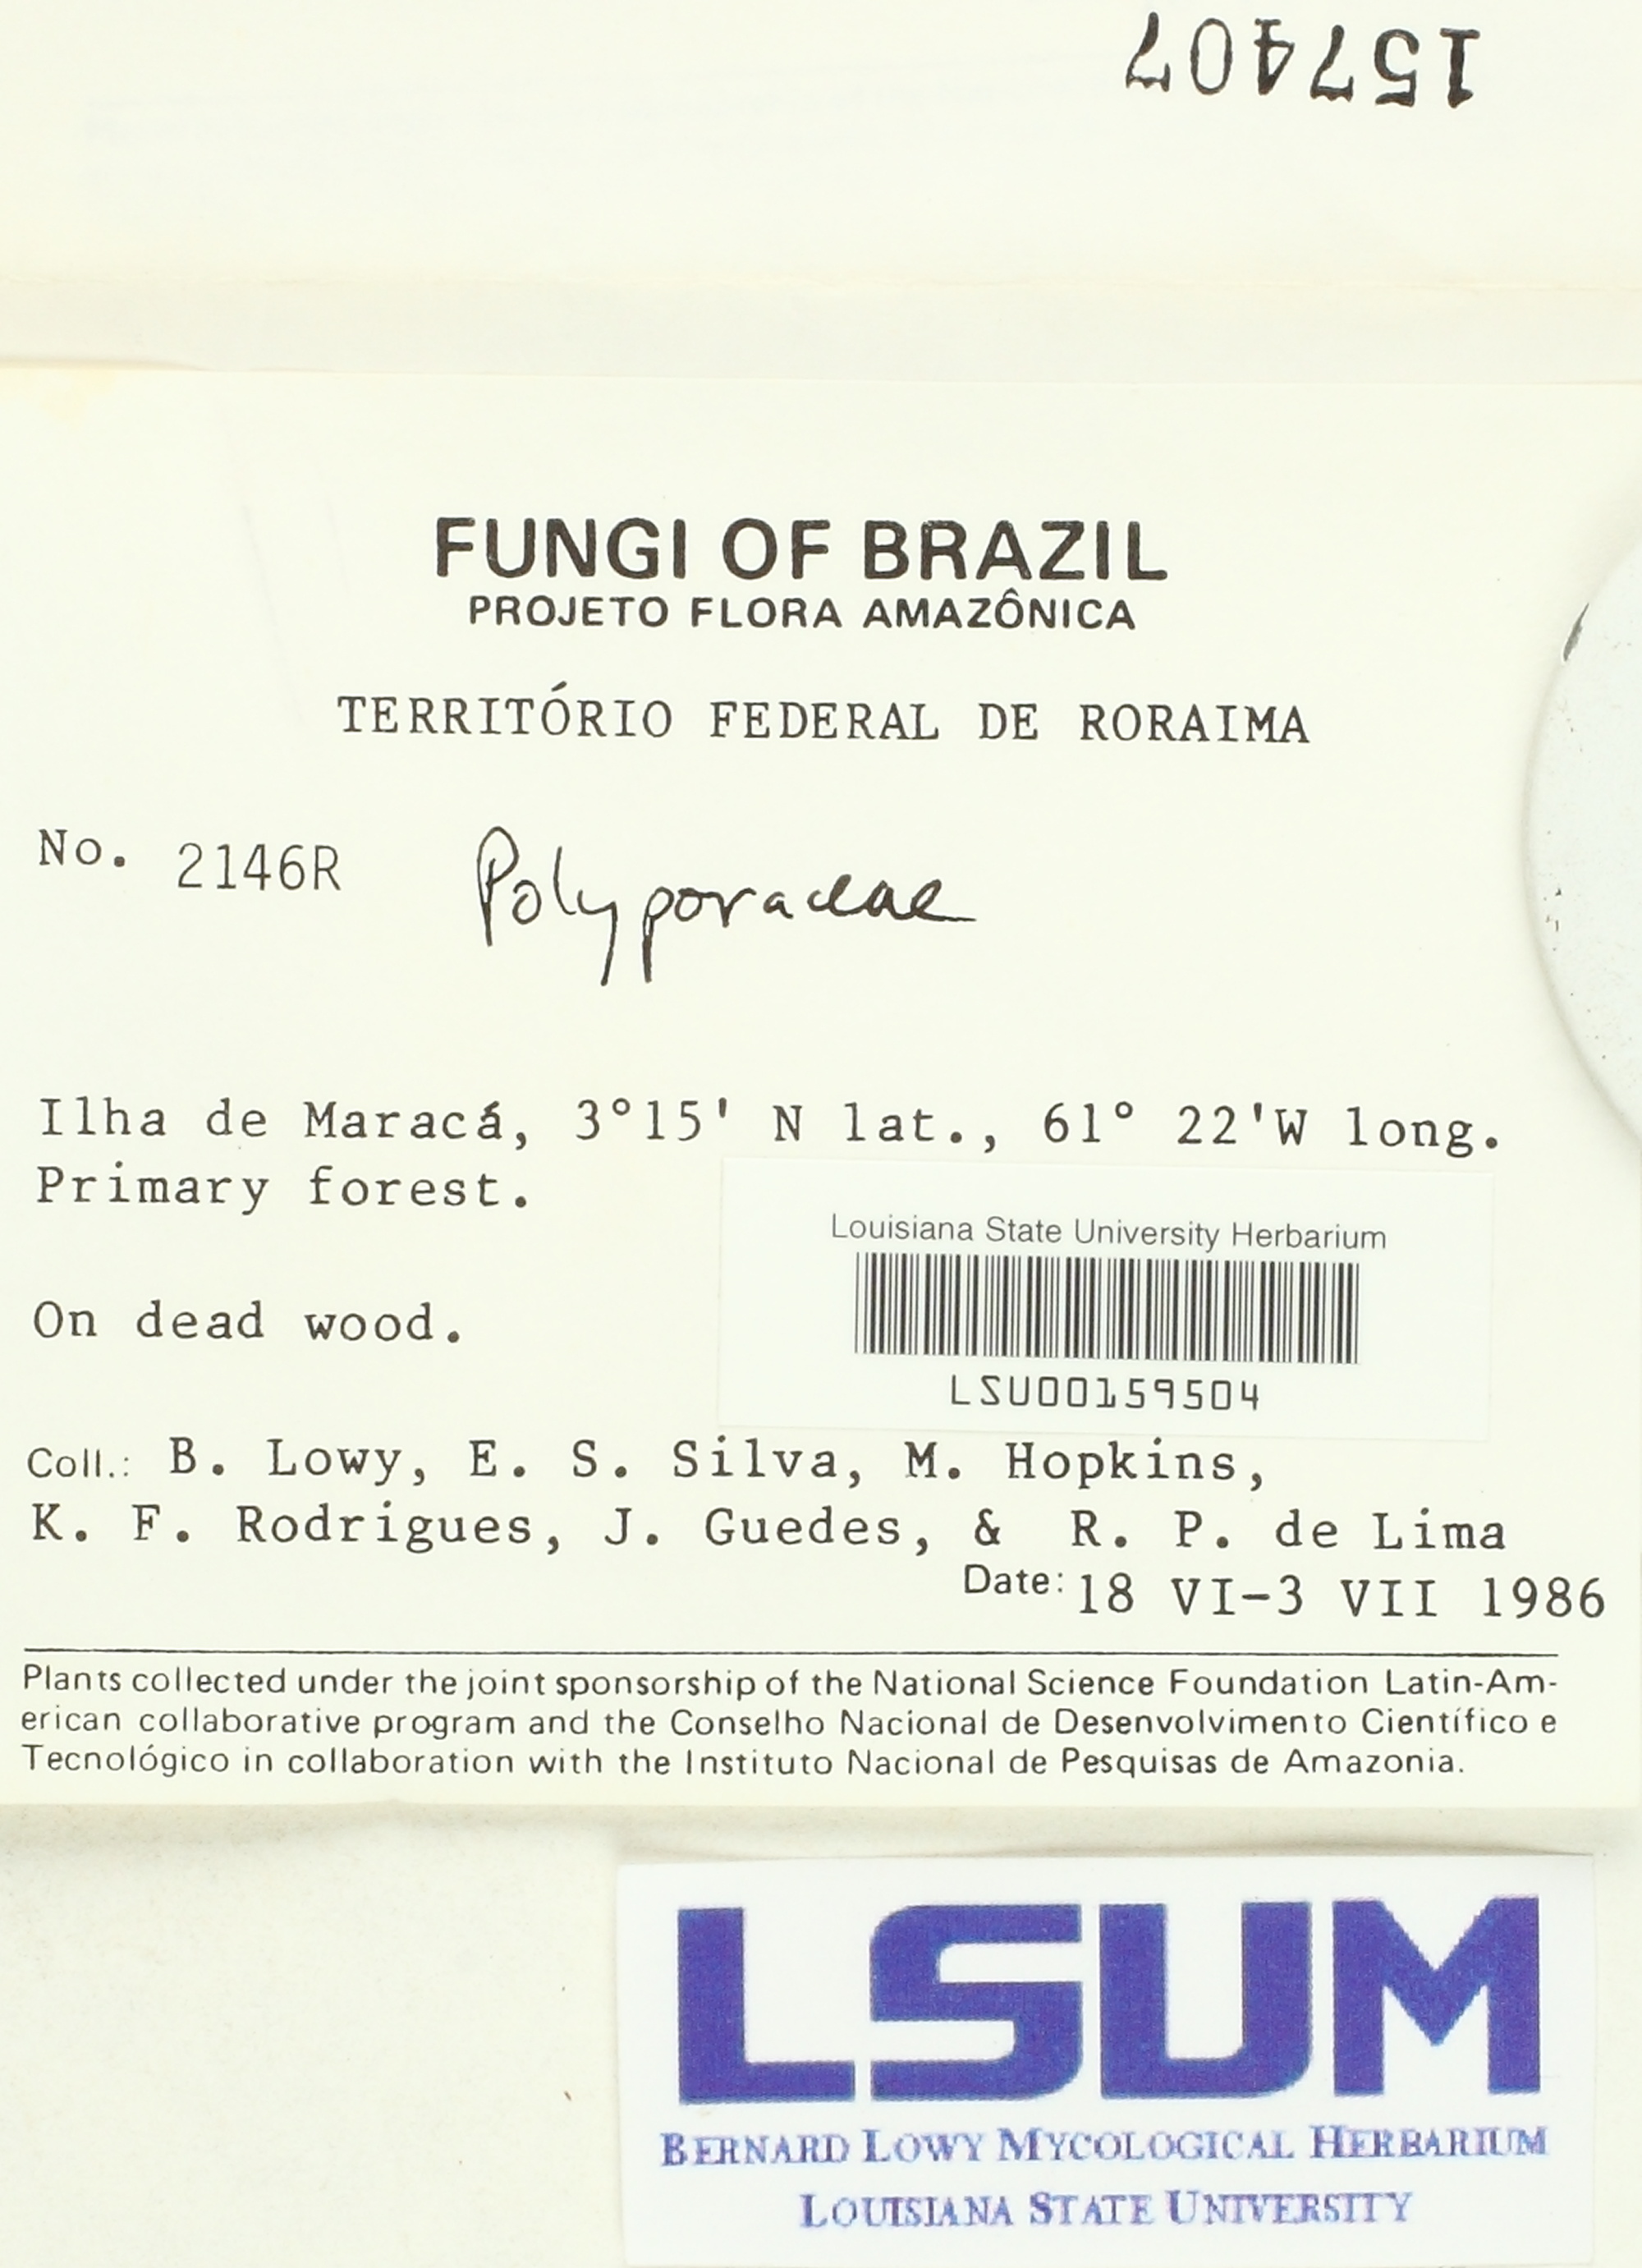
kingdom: Fungi
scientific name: Fungi
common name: Fungi
